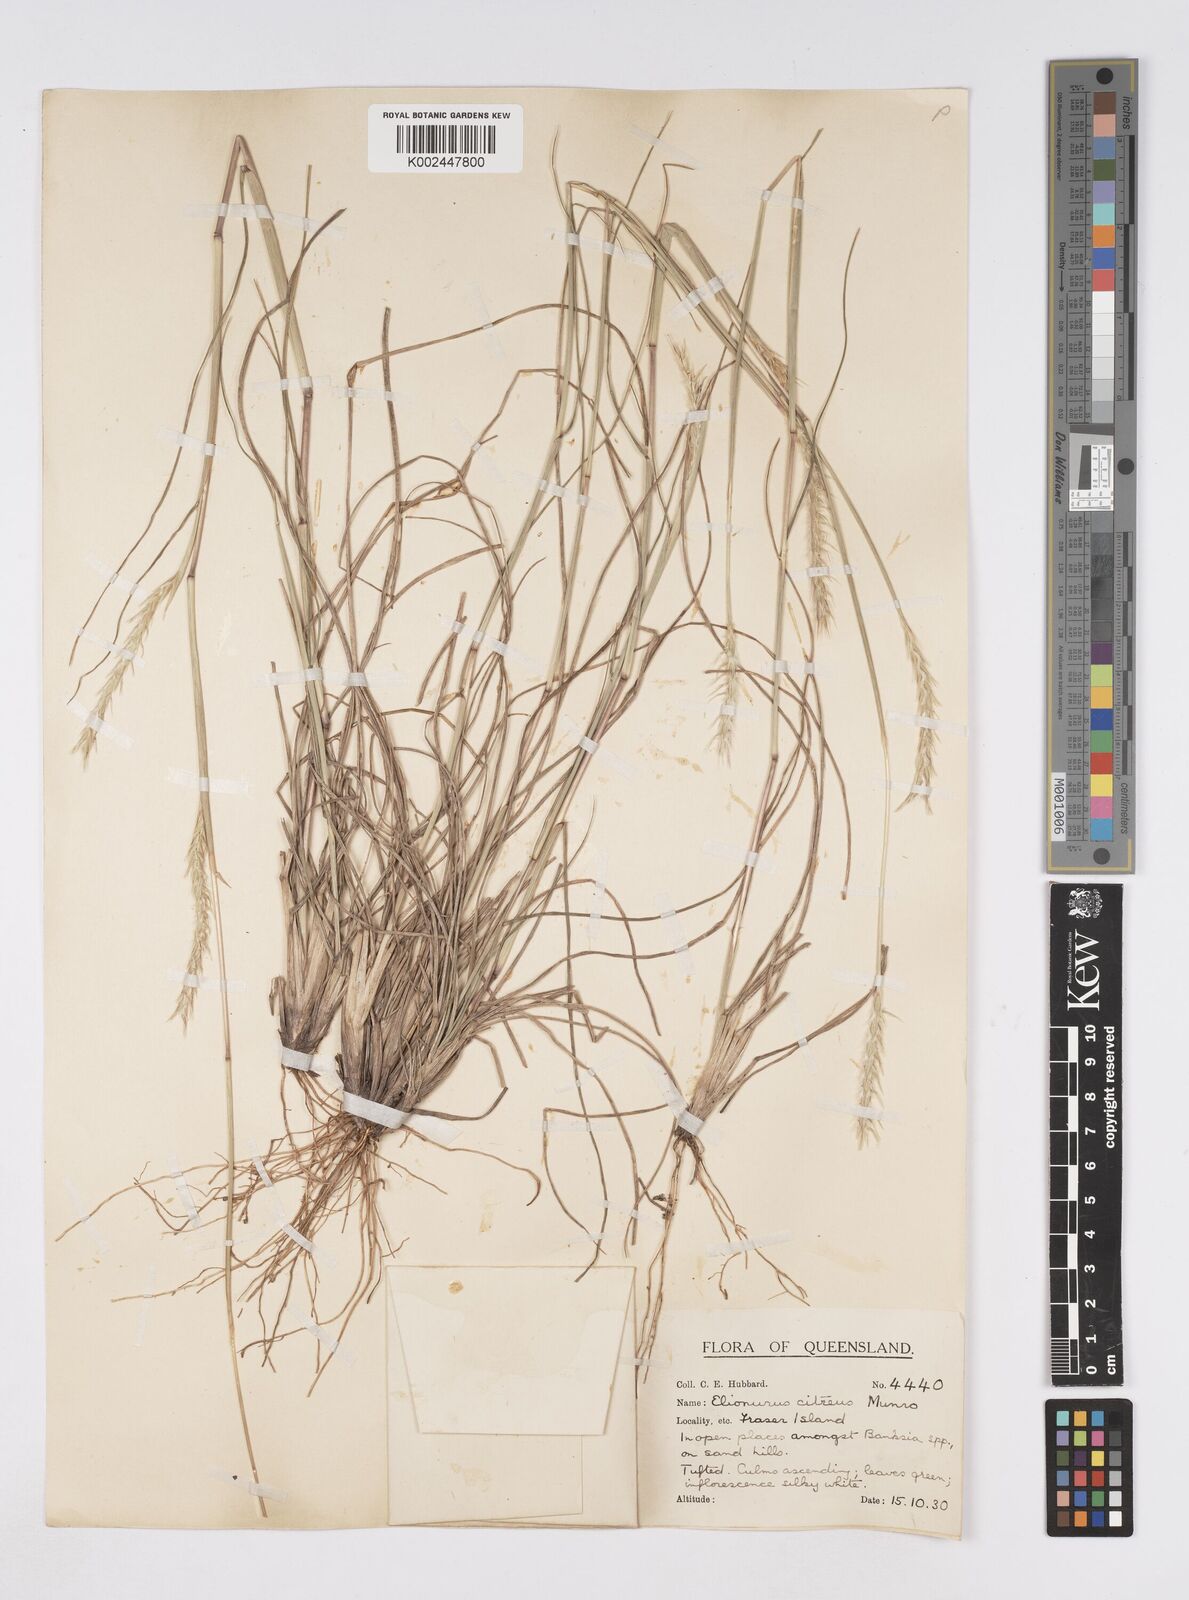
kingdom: Plantae
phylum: Tracheophyta
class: Liliopsida
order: Poales
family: Poaceae
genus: Elionurus
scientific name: Elionurus citreus
